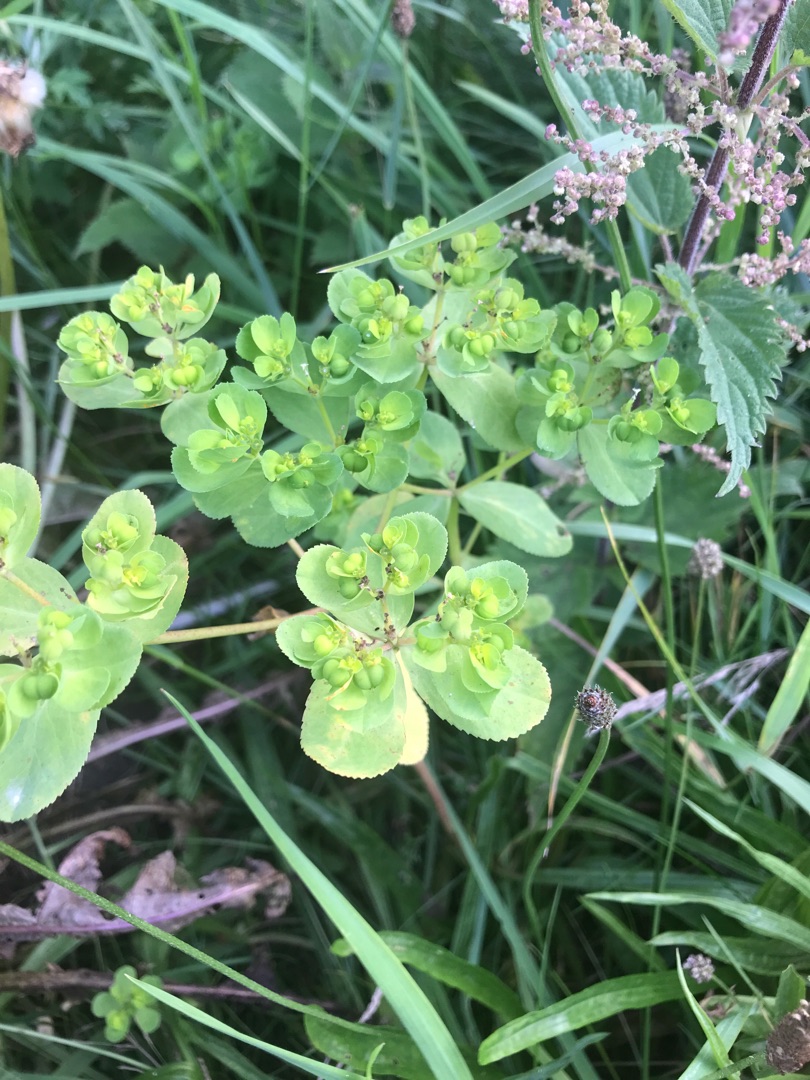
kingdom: Plantae
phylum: Tracheophyta
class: Magnoliopsida
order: Malpighiales
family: Euphorbiaceae
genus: Euphorbia
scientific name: Euphorbia helioscopia
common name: Skærm-vortemælk
